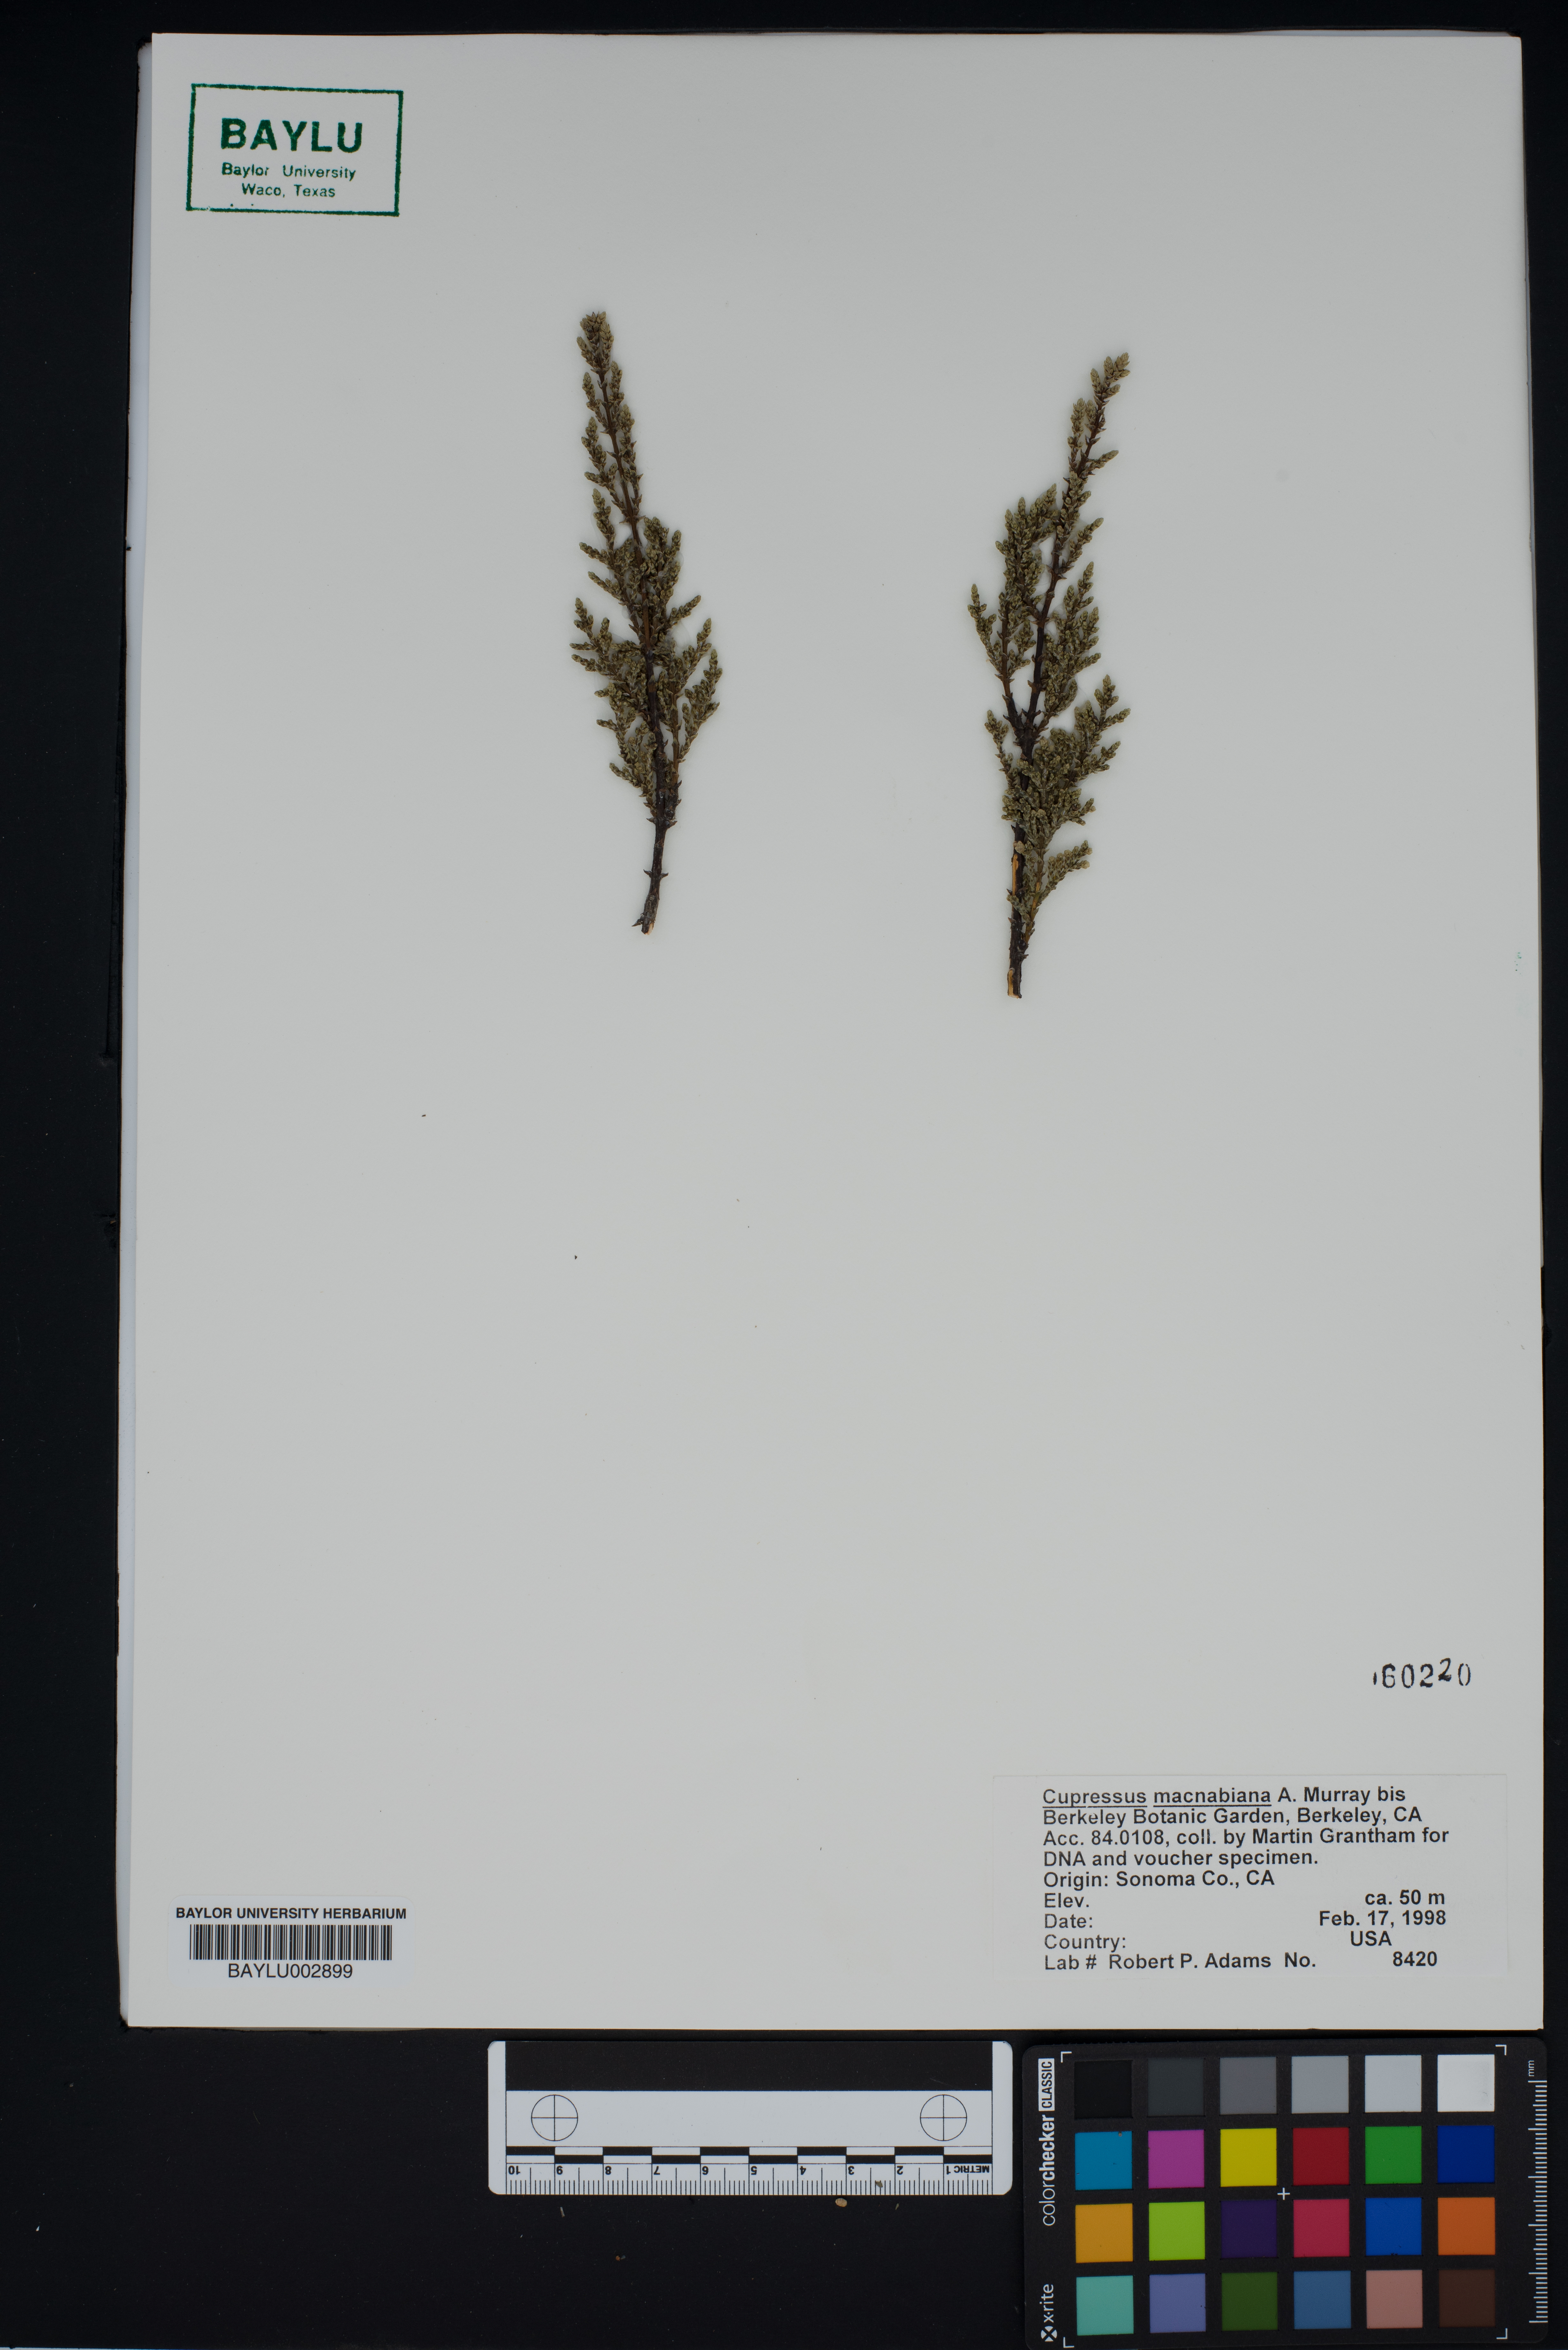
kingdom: Plantae
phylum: Tracheophyta
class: Pinopsida
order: Pinales
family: Cupressaceae
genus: Cupressus
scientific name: Cupressus macnabiana bis
